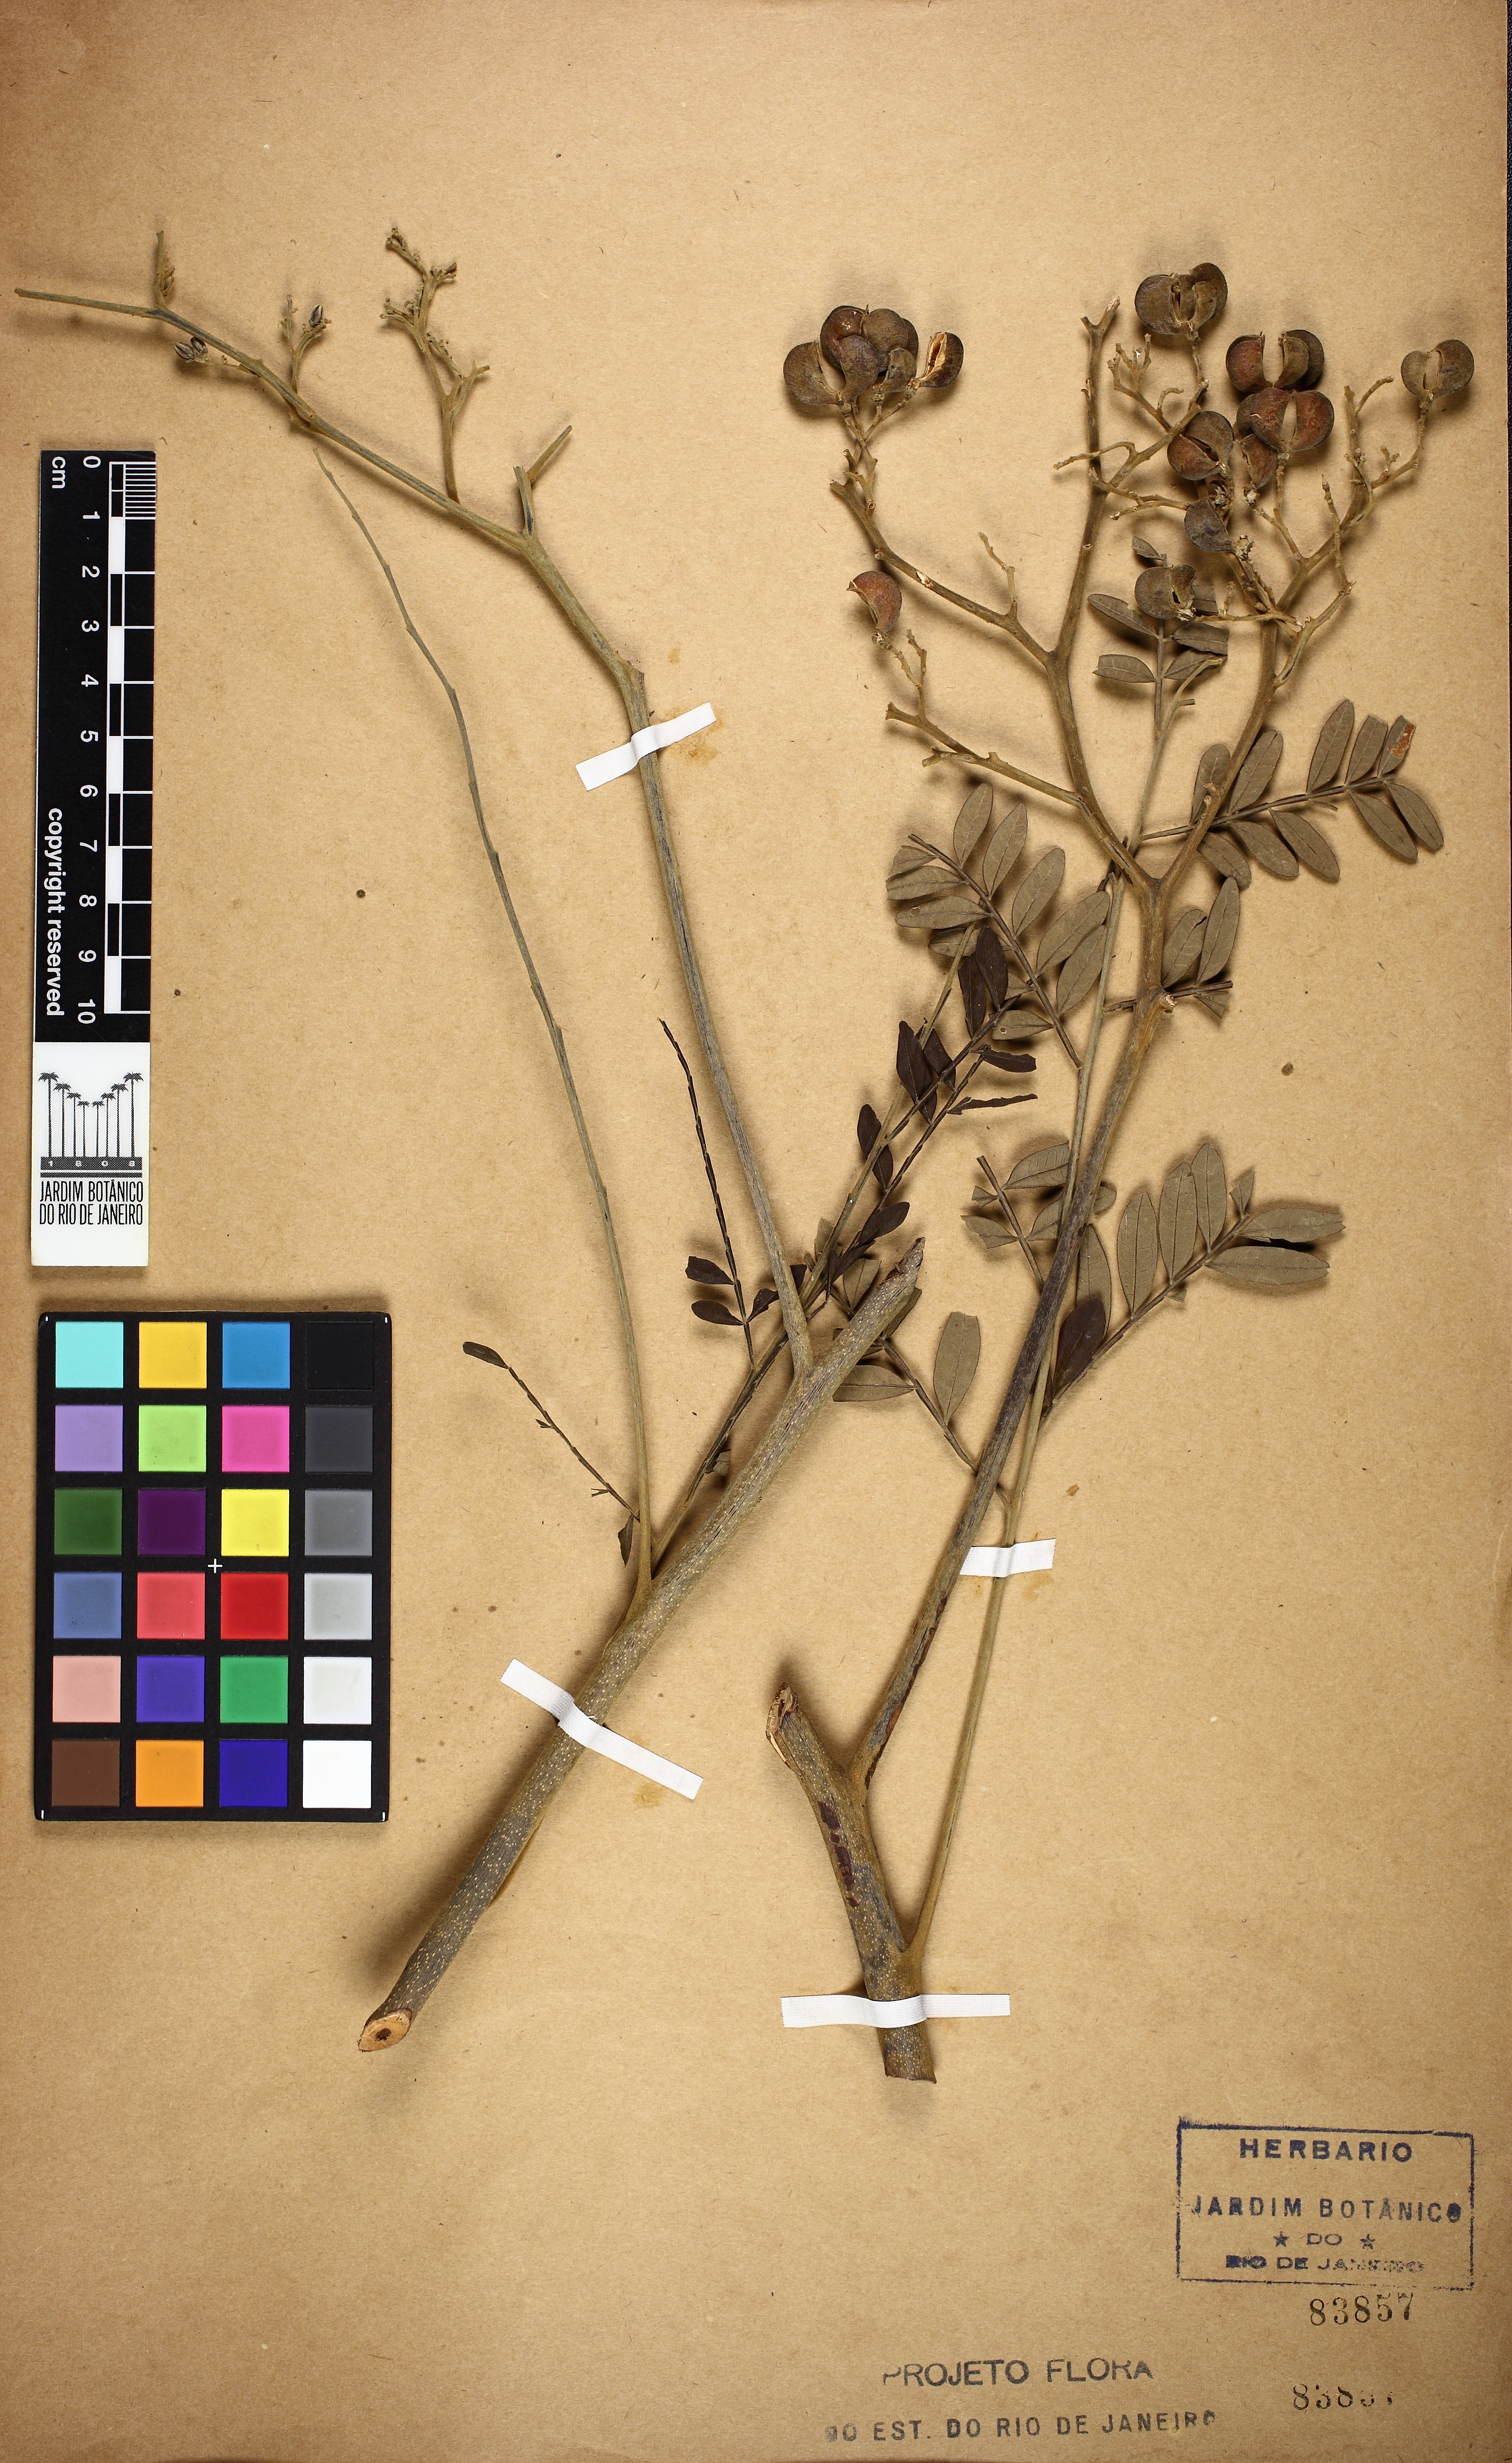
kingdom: Plantae
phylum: Tracheophyta
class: Magnoliopsida
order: Sapindales
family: Rutaceae
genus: Dictyoloma
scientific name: Dictyoloma vandellianum
